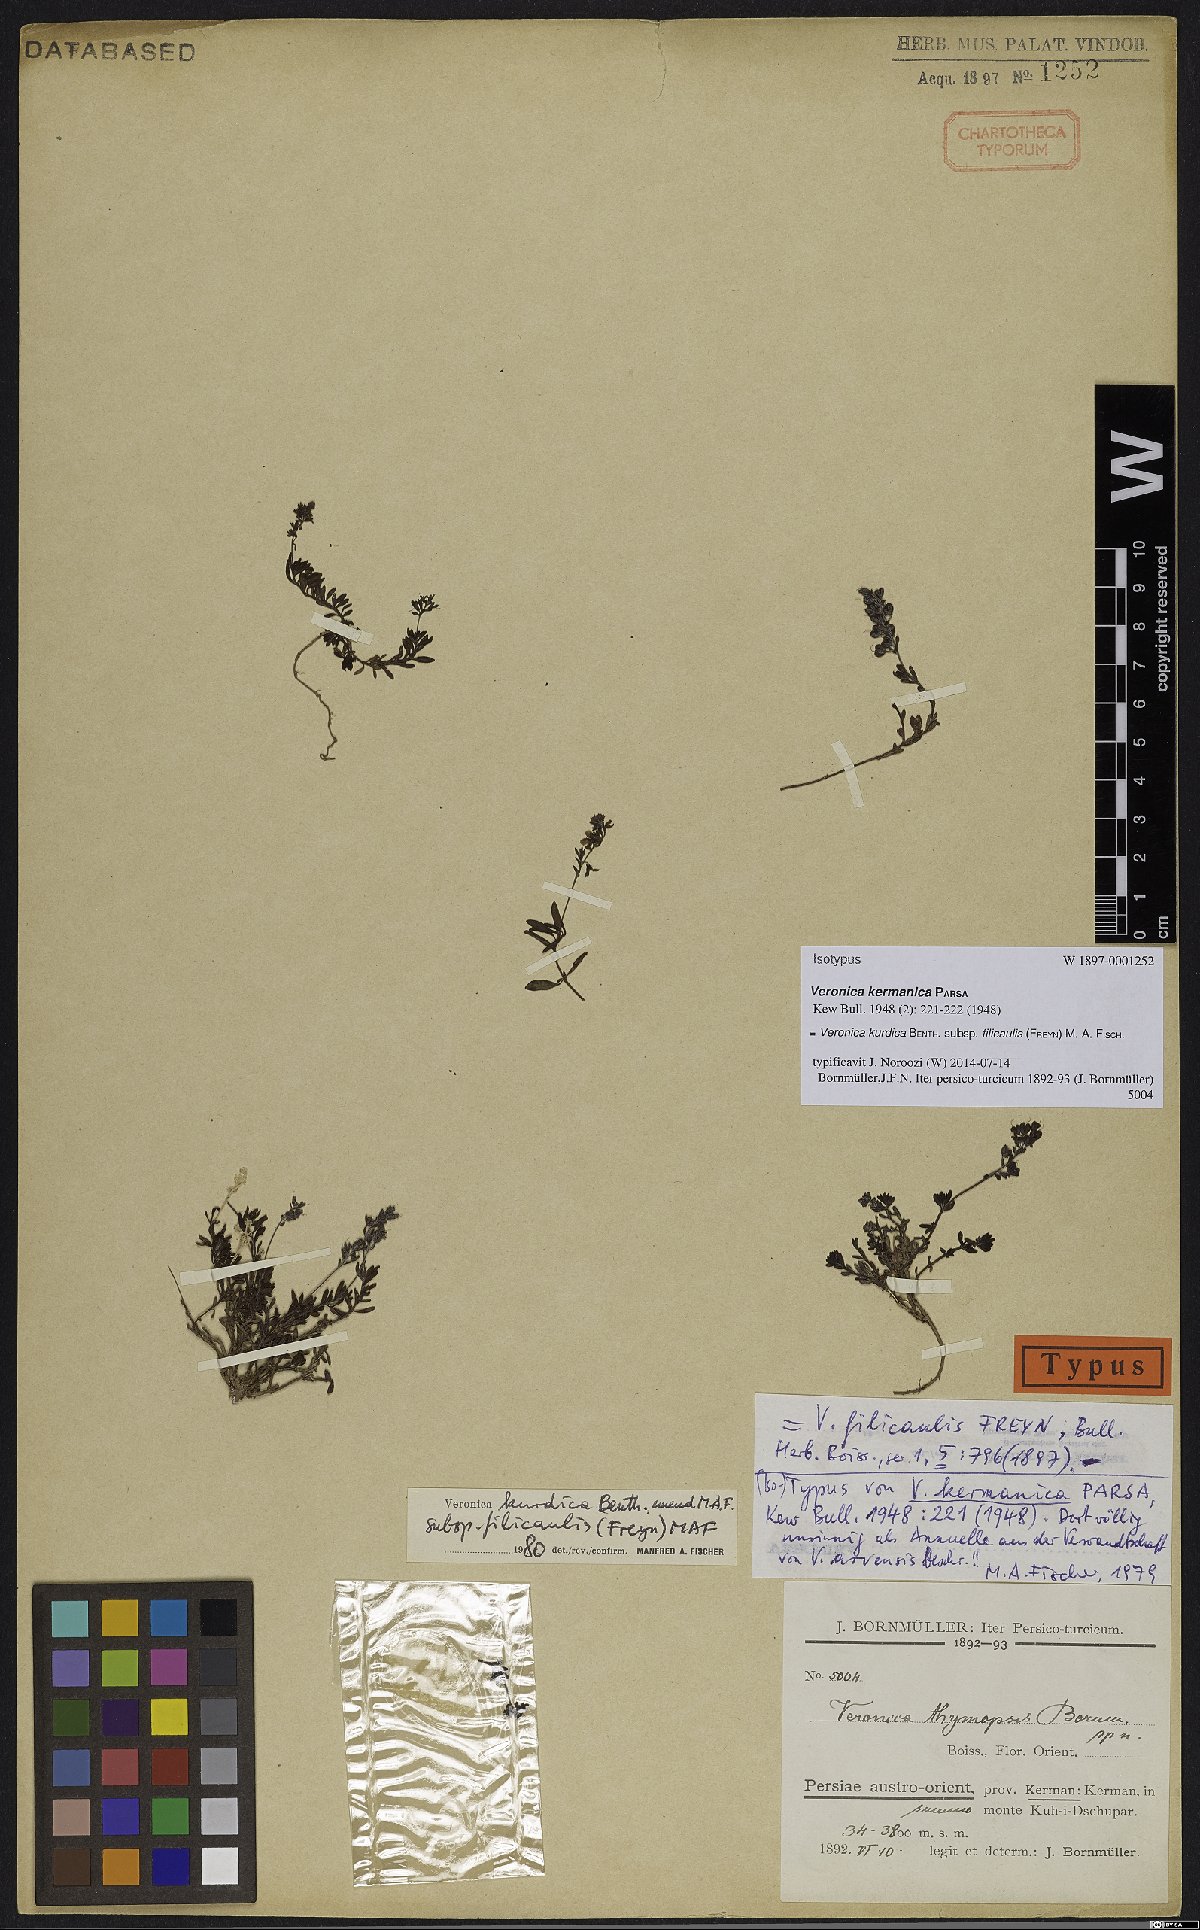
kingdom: Plantae
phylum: Tracheophyta
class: Magnoliopsida
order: Lamiales
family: Plantaginaceae
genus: Veronica
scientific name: Veronica kurdica
